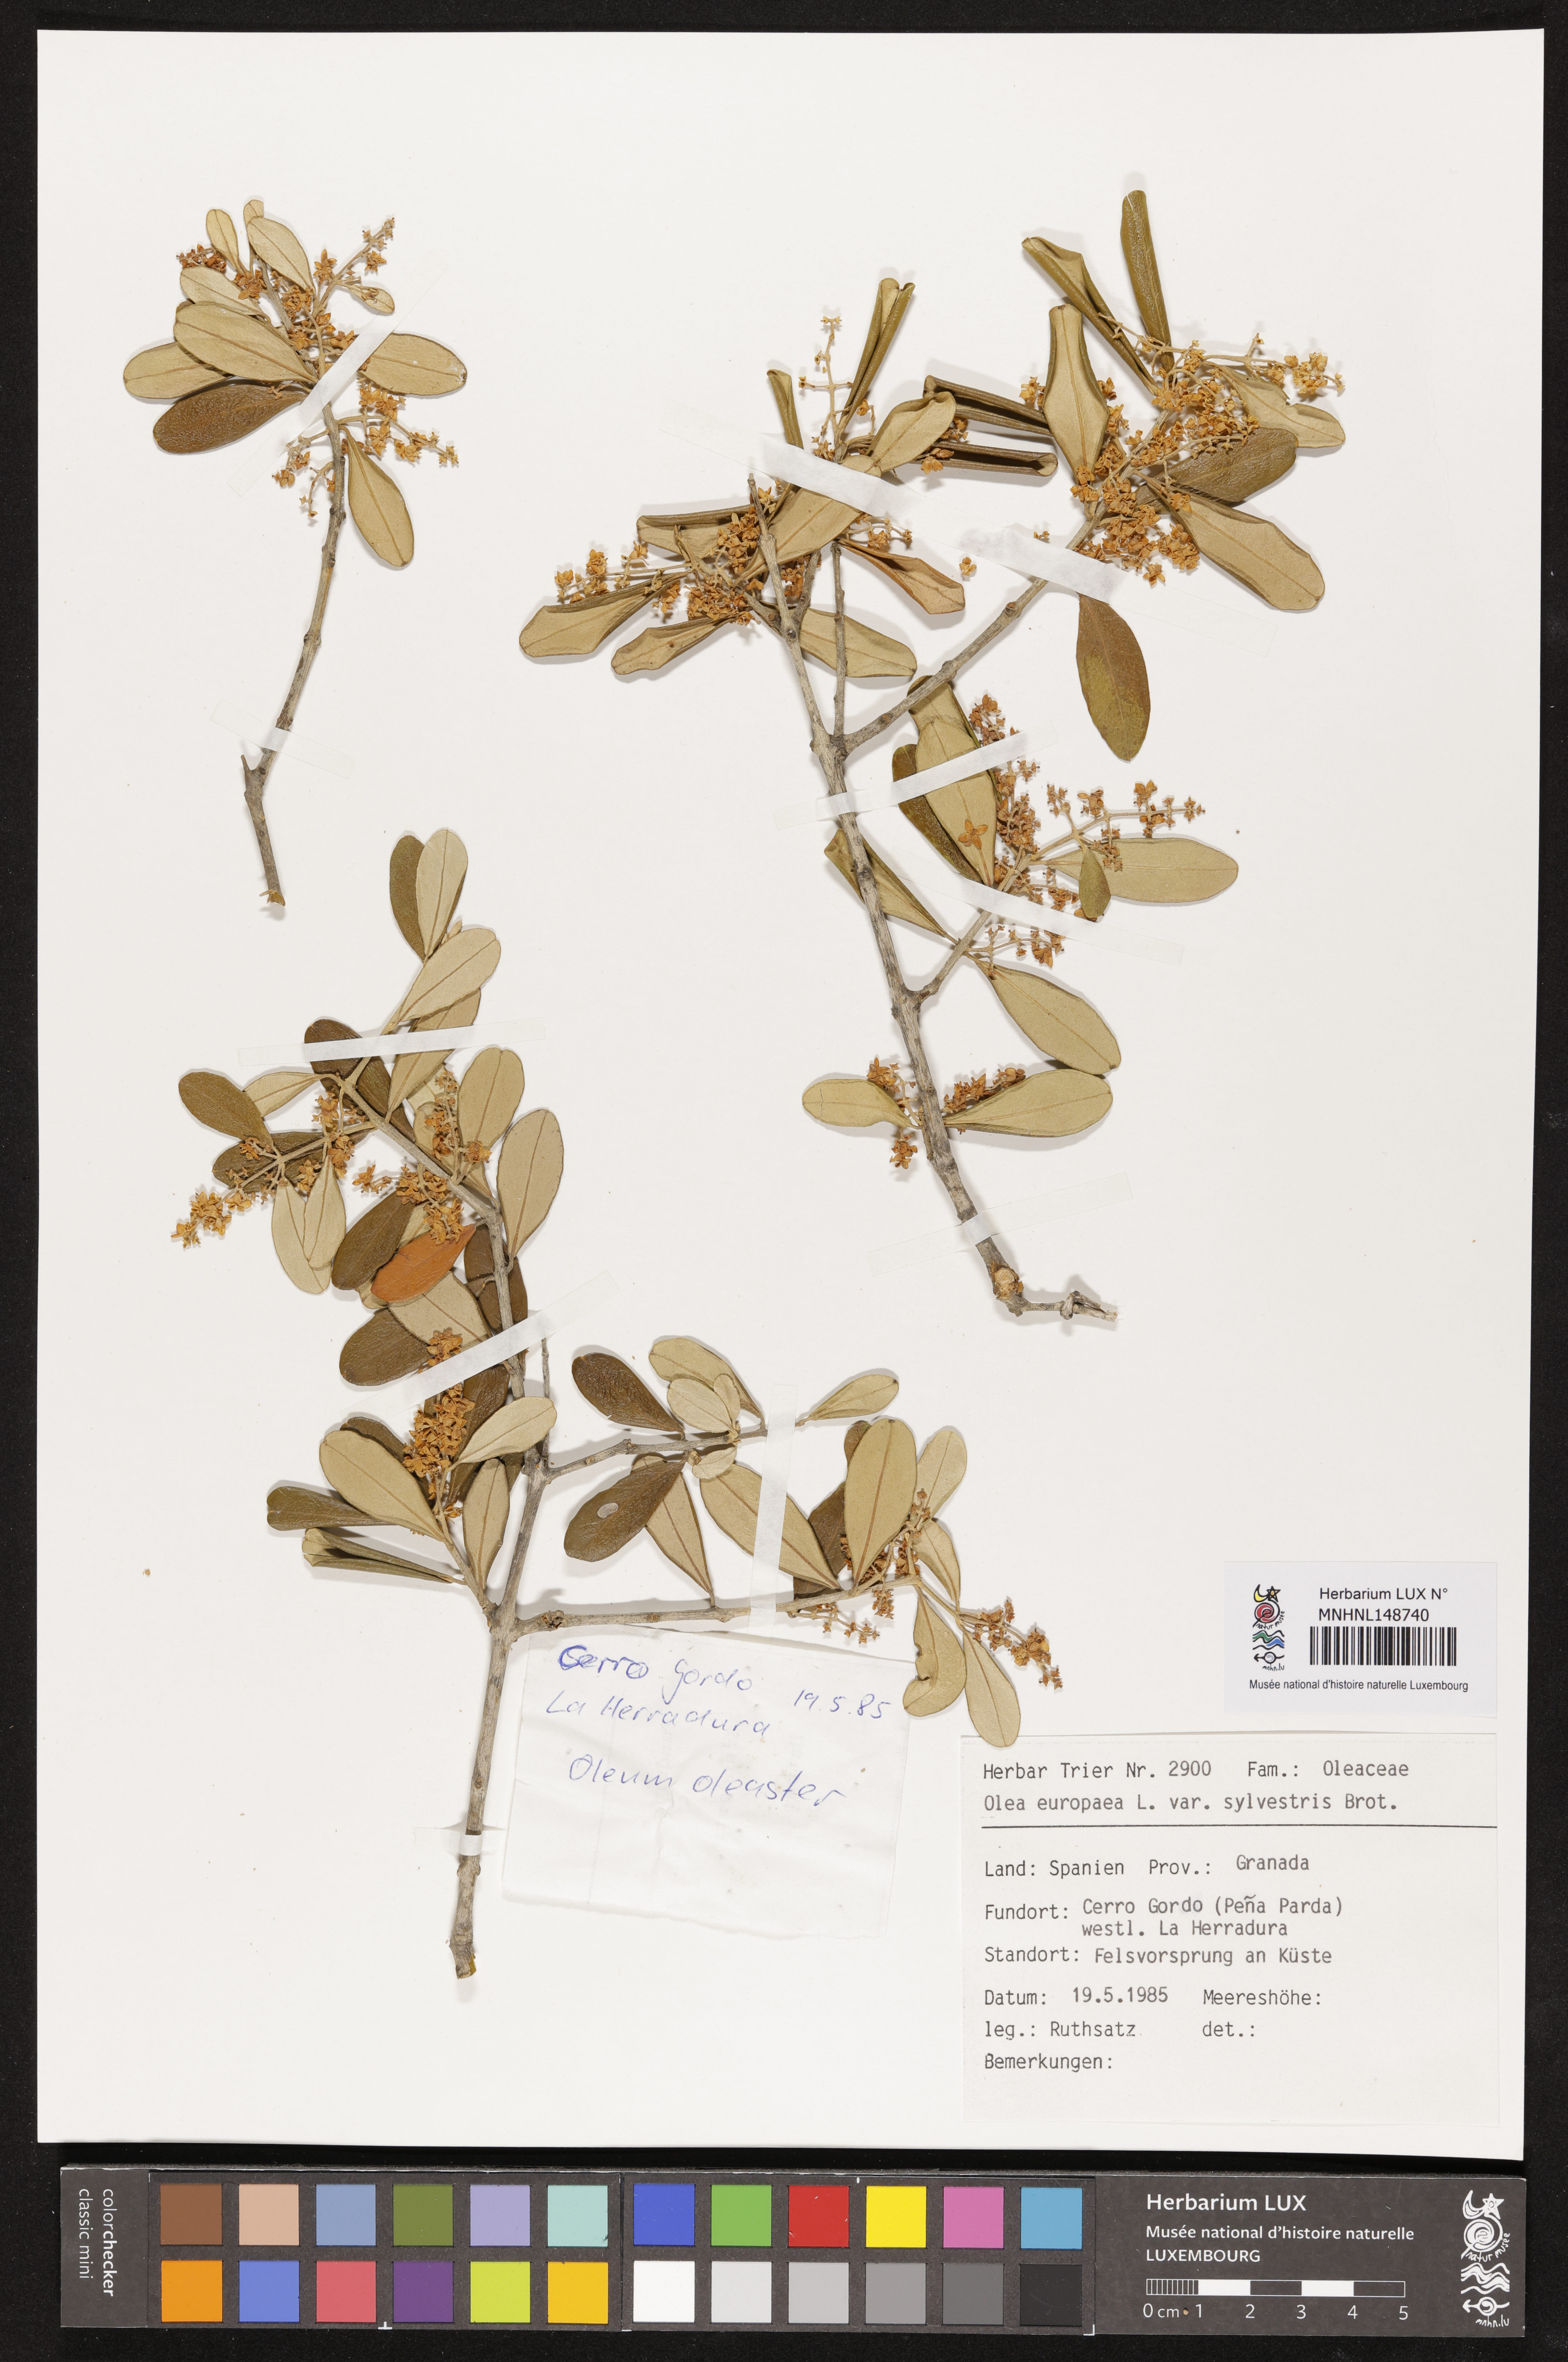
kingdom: Plantae
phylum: Tracheophyta
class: Magnoliopsida
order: Lamiales
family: Oleaceae
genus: Olea
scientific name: Olea europaea
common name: Olive
